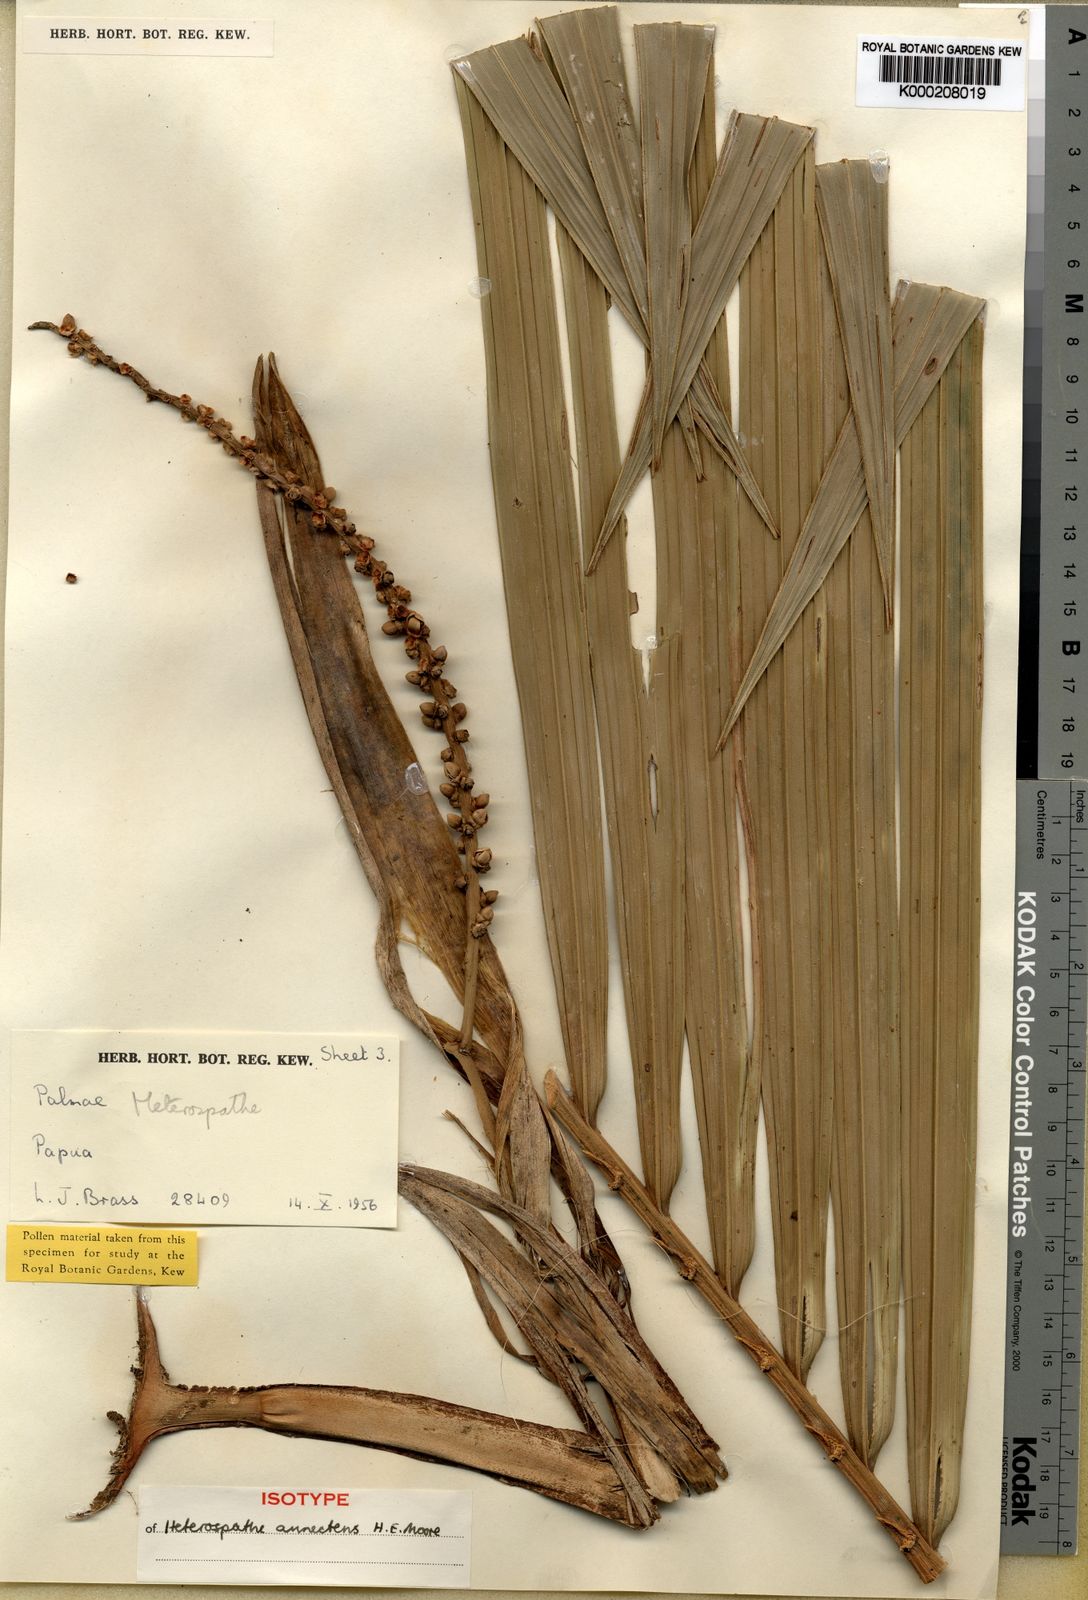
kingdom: Plantae
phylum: Tracheophyta
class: Liliopsida
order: Arecales
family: Arecaceae
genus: Heterospathe
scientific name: Heterospathe annectens
